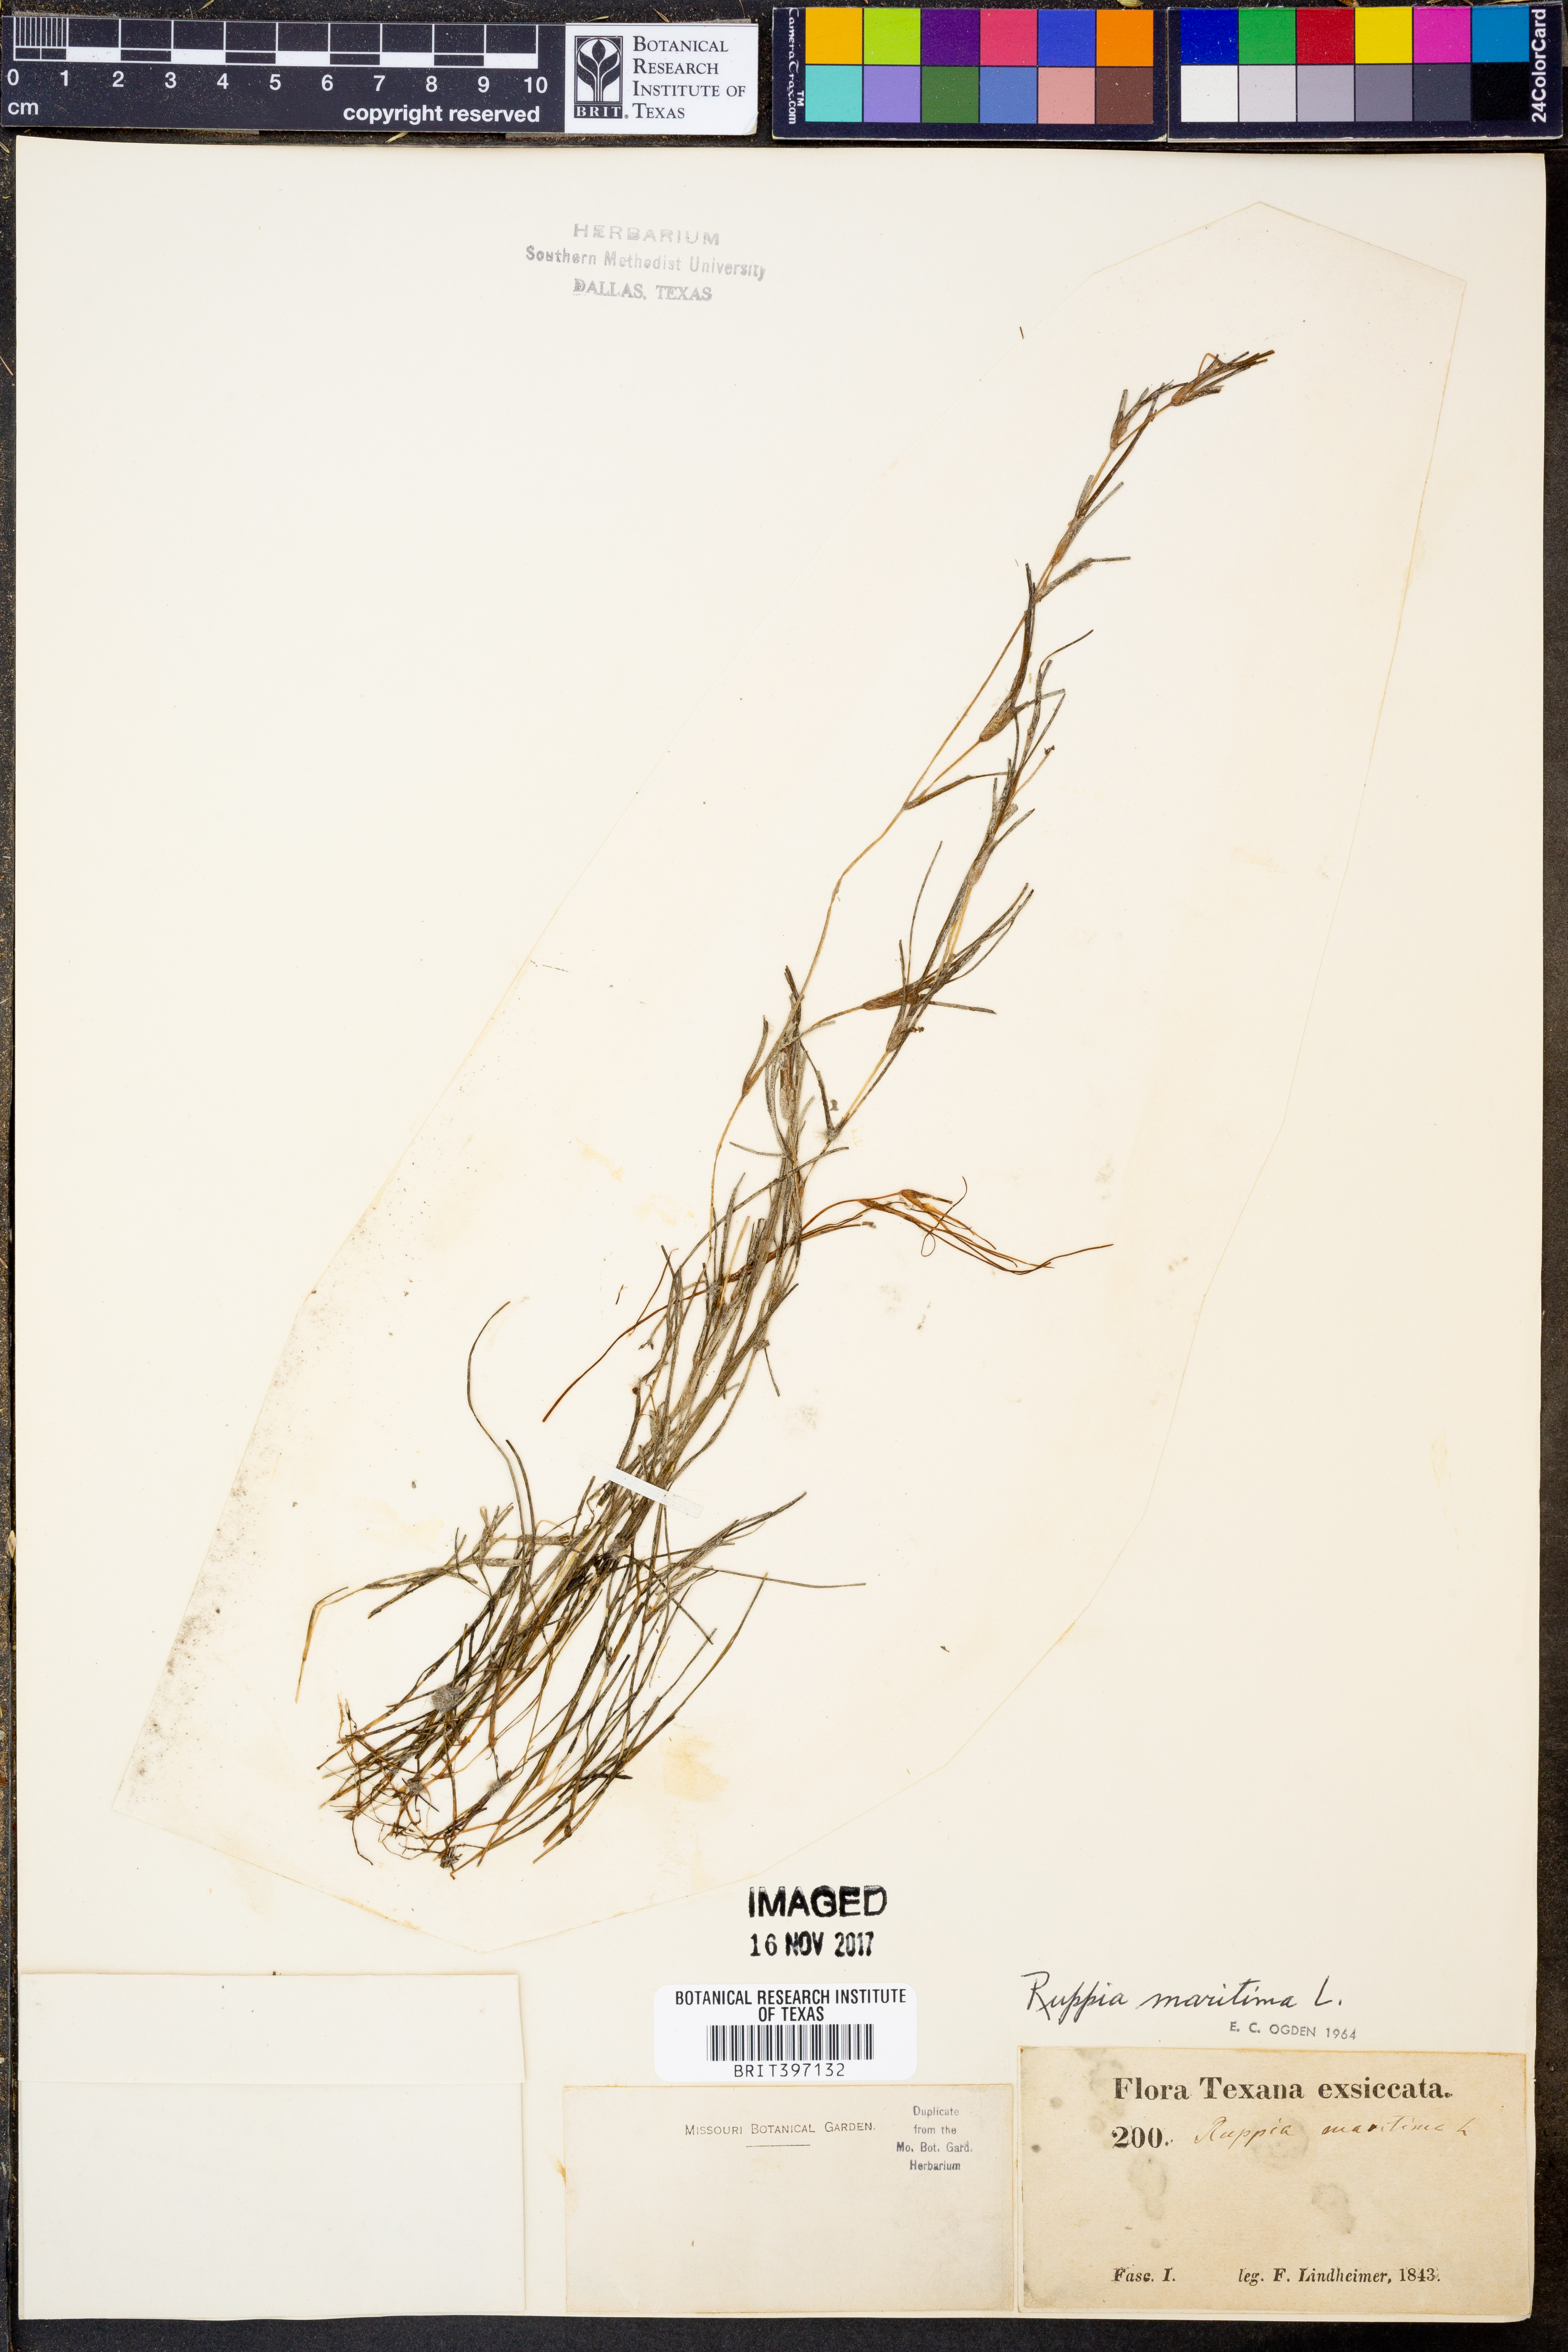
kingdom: Plantae
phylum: Tracheophyta
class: Liliopsida
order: Alismatales
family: Ruppiaceae
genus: Ruppia
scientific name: Ruppia maritima
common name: Beaked tasselweed
